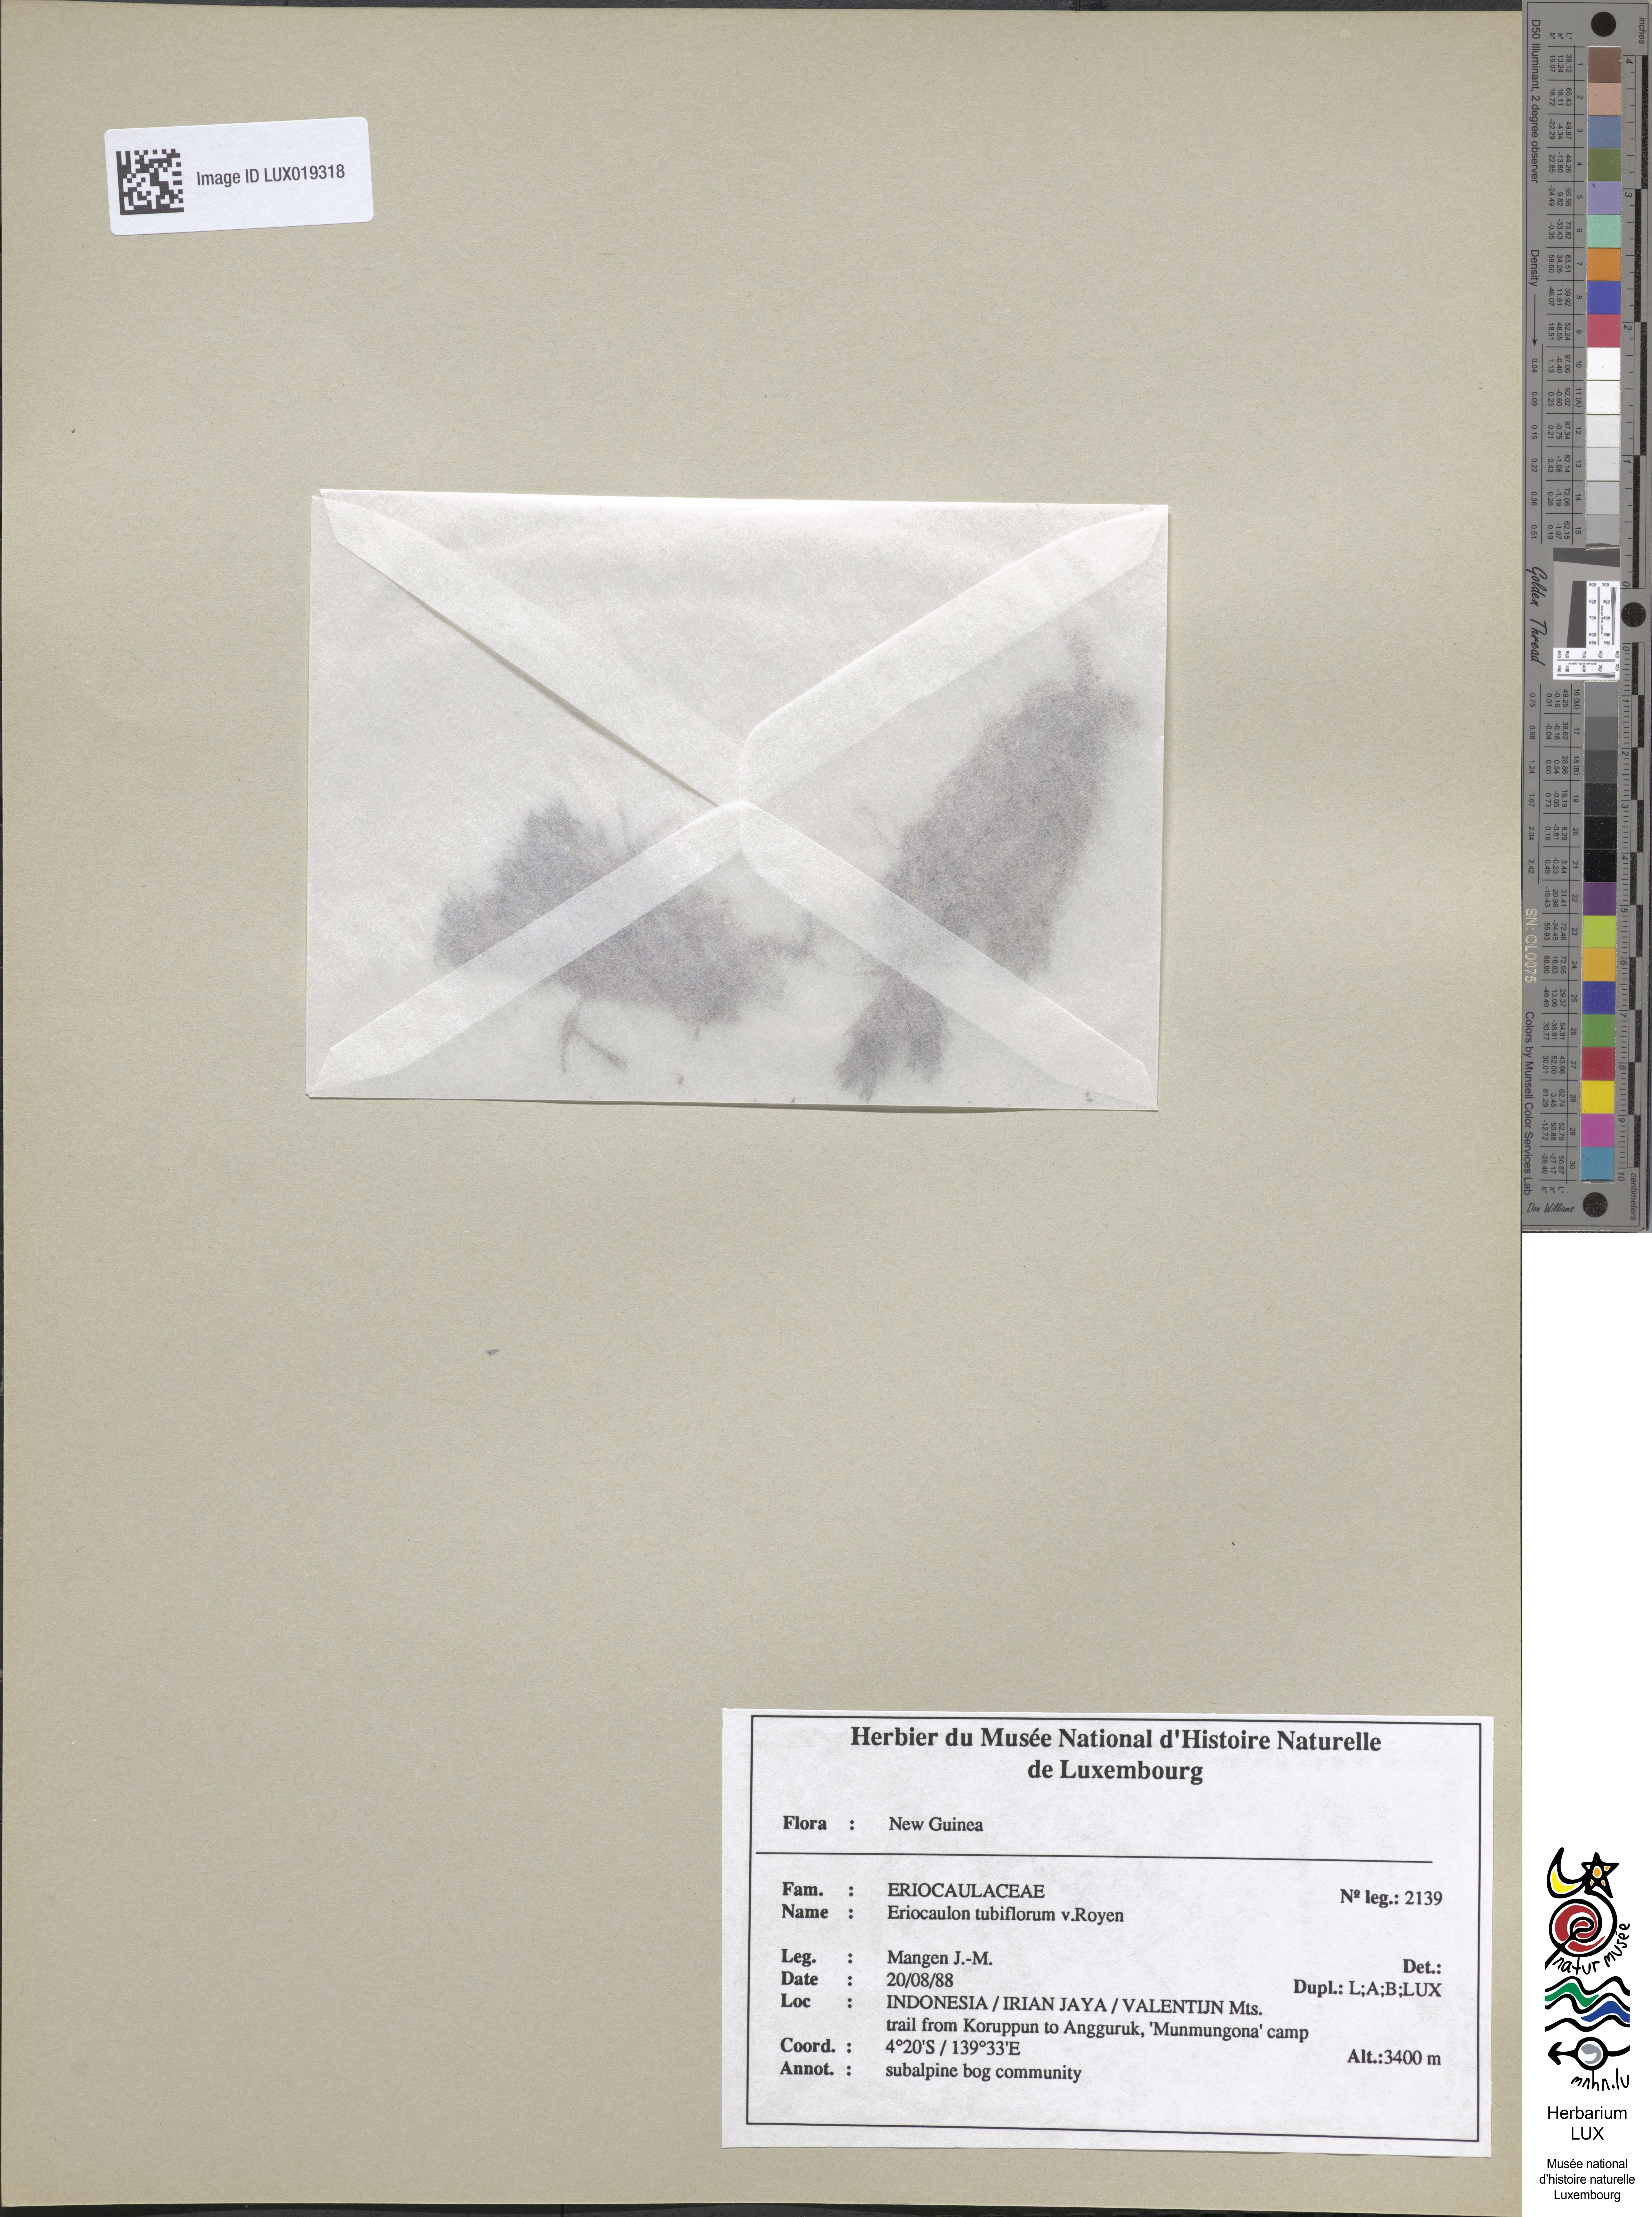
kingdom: Plantae
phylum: Tracheophyta
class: Liliopsida
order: Poales
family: Eriocaulaceae
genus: Eriocaulon
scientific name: Eriocaulon tubiflorum
